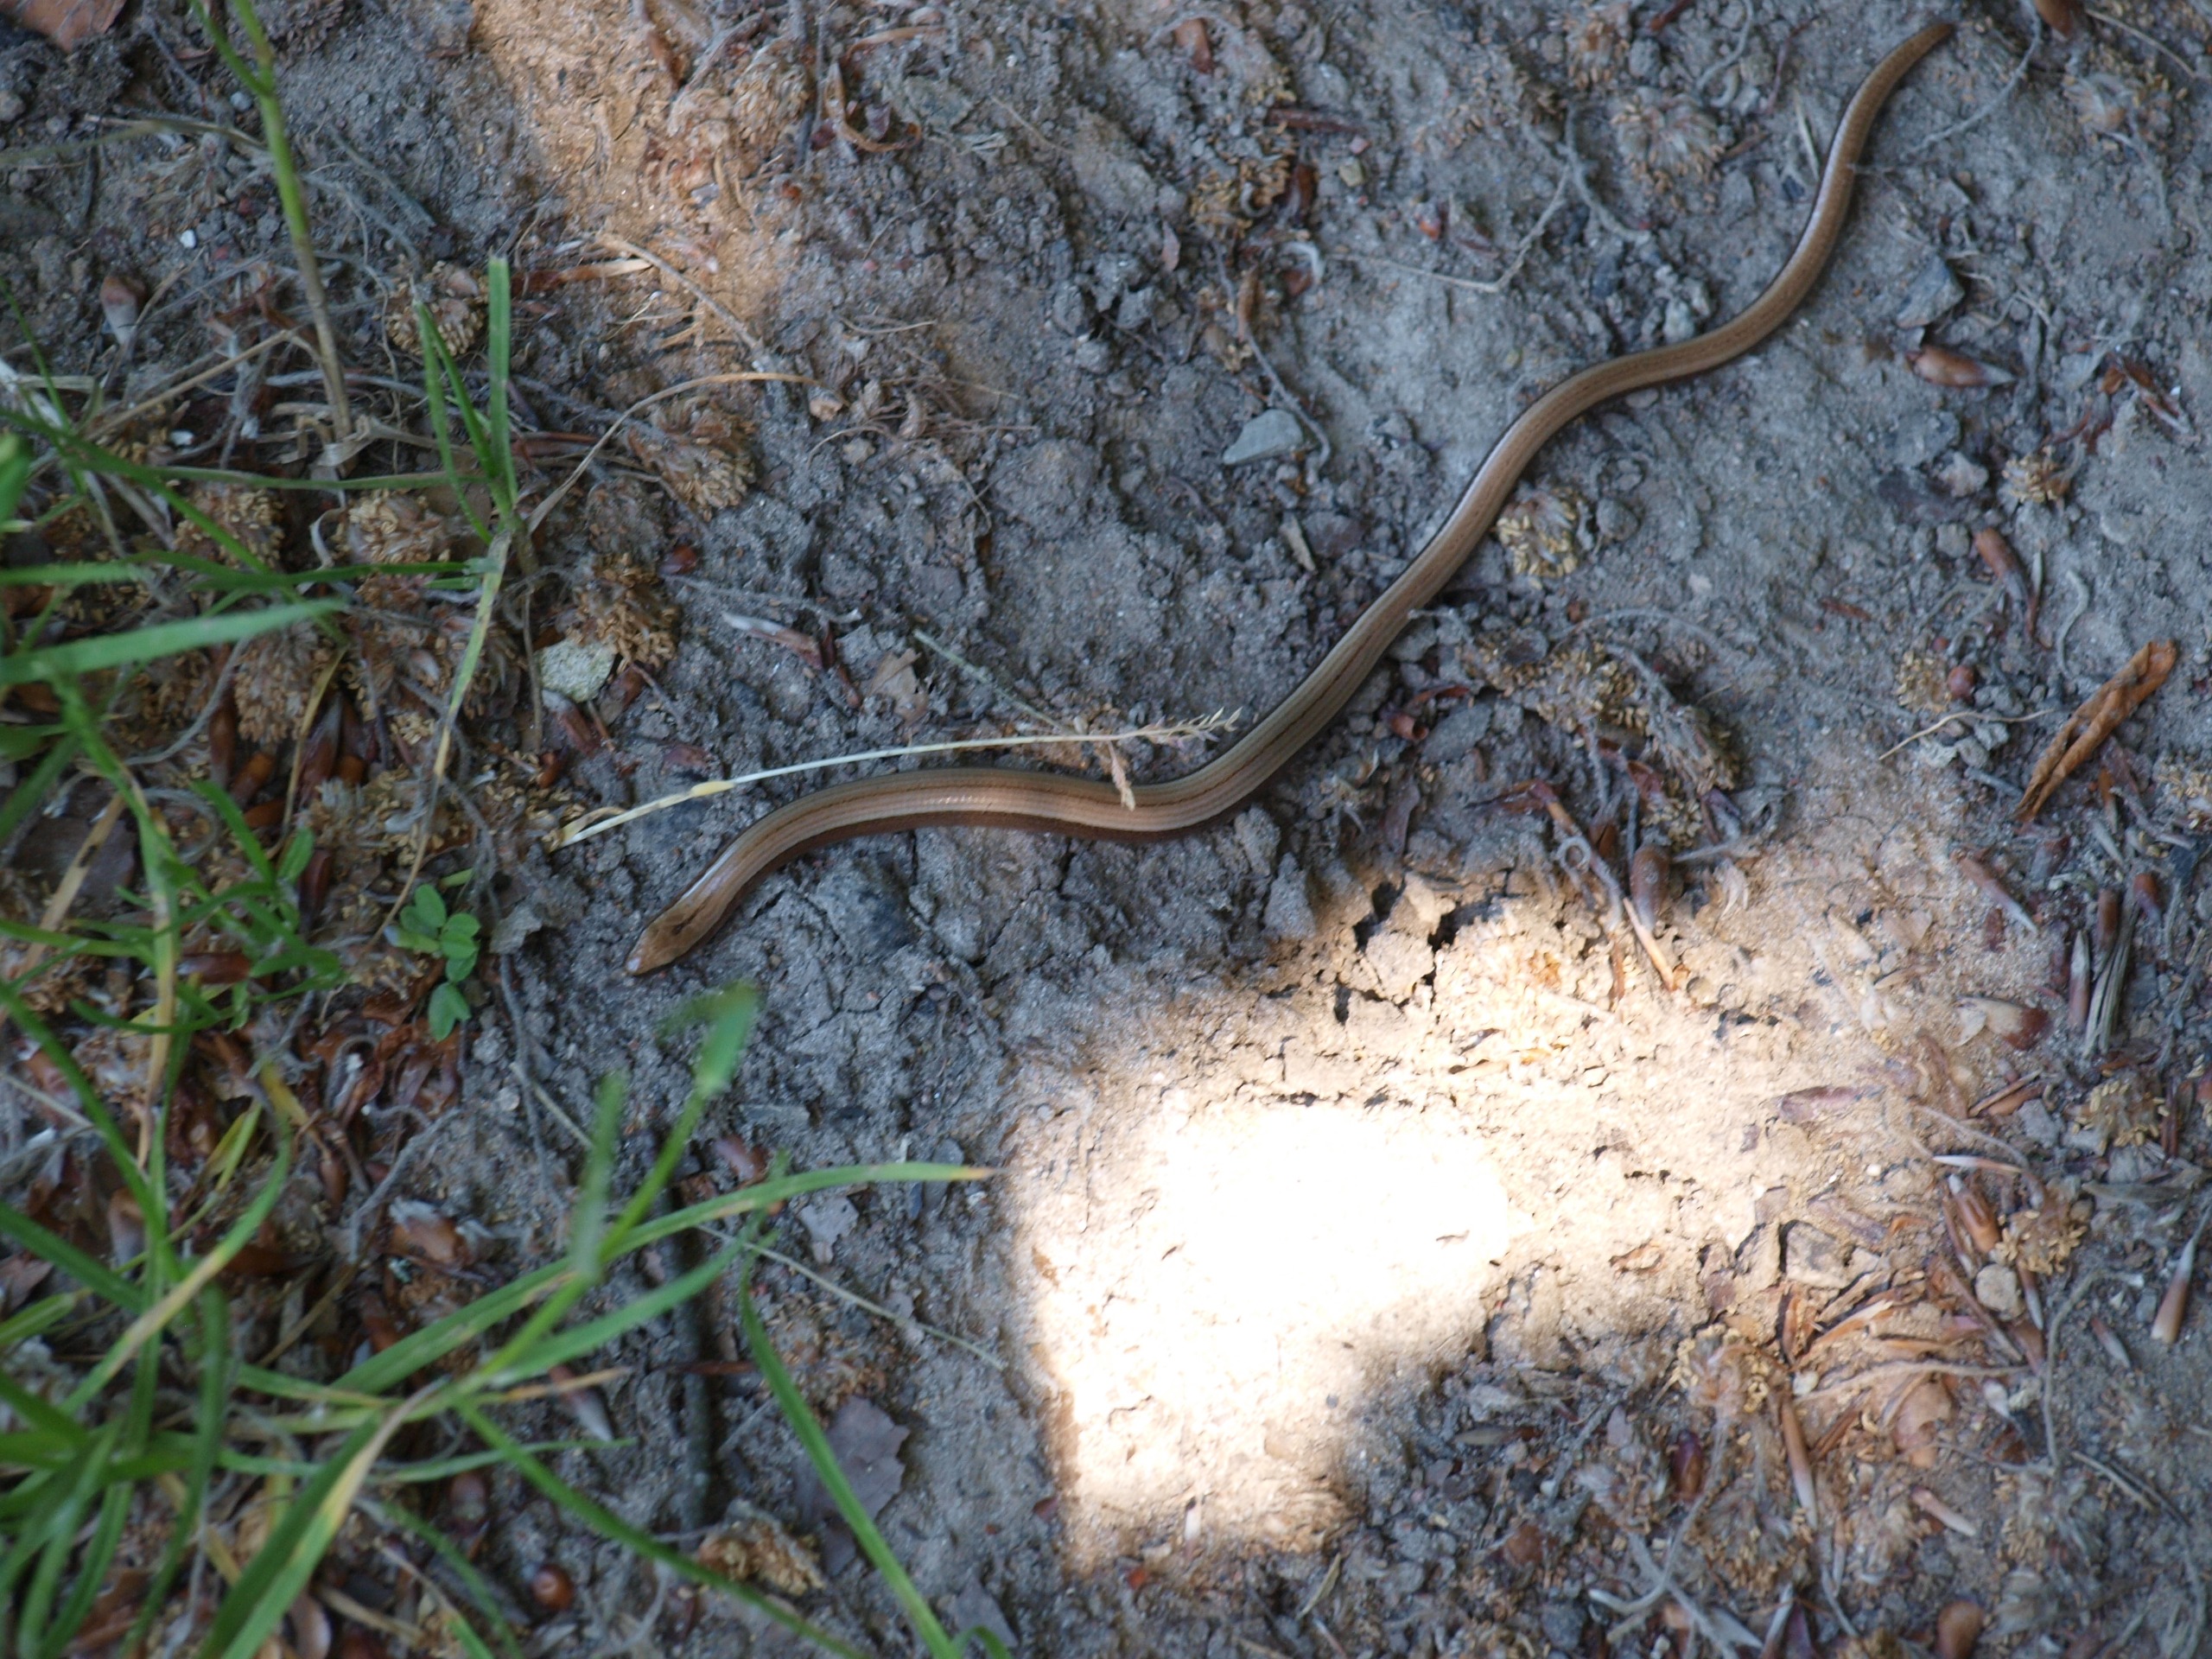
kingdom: Animalia
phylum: Chordata
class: Squamata
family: Anguidae
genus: Anguis
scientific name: Anguis fragilis
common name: Stålorm
